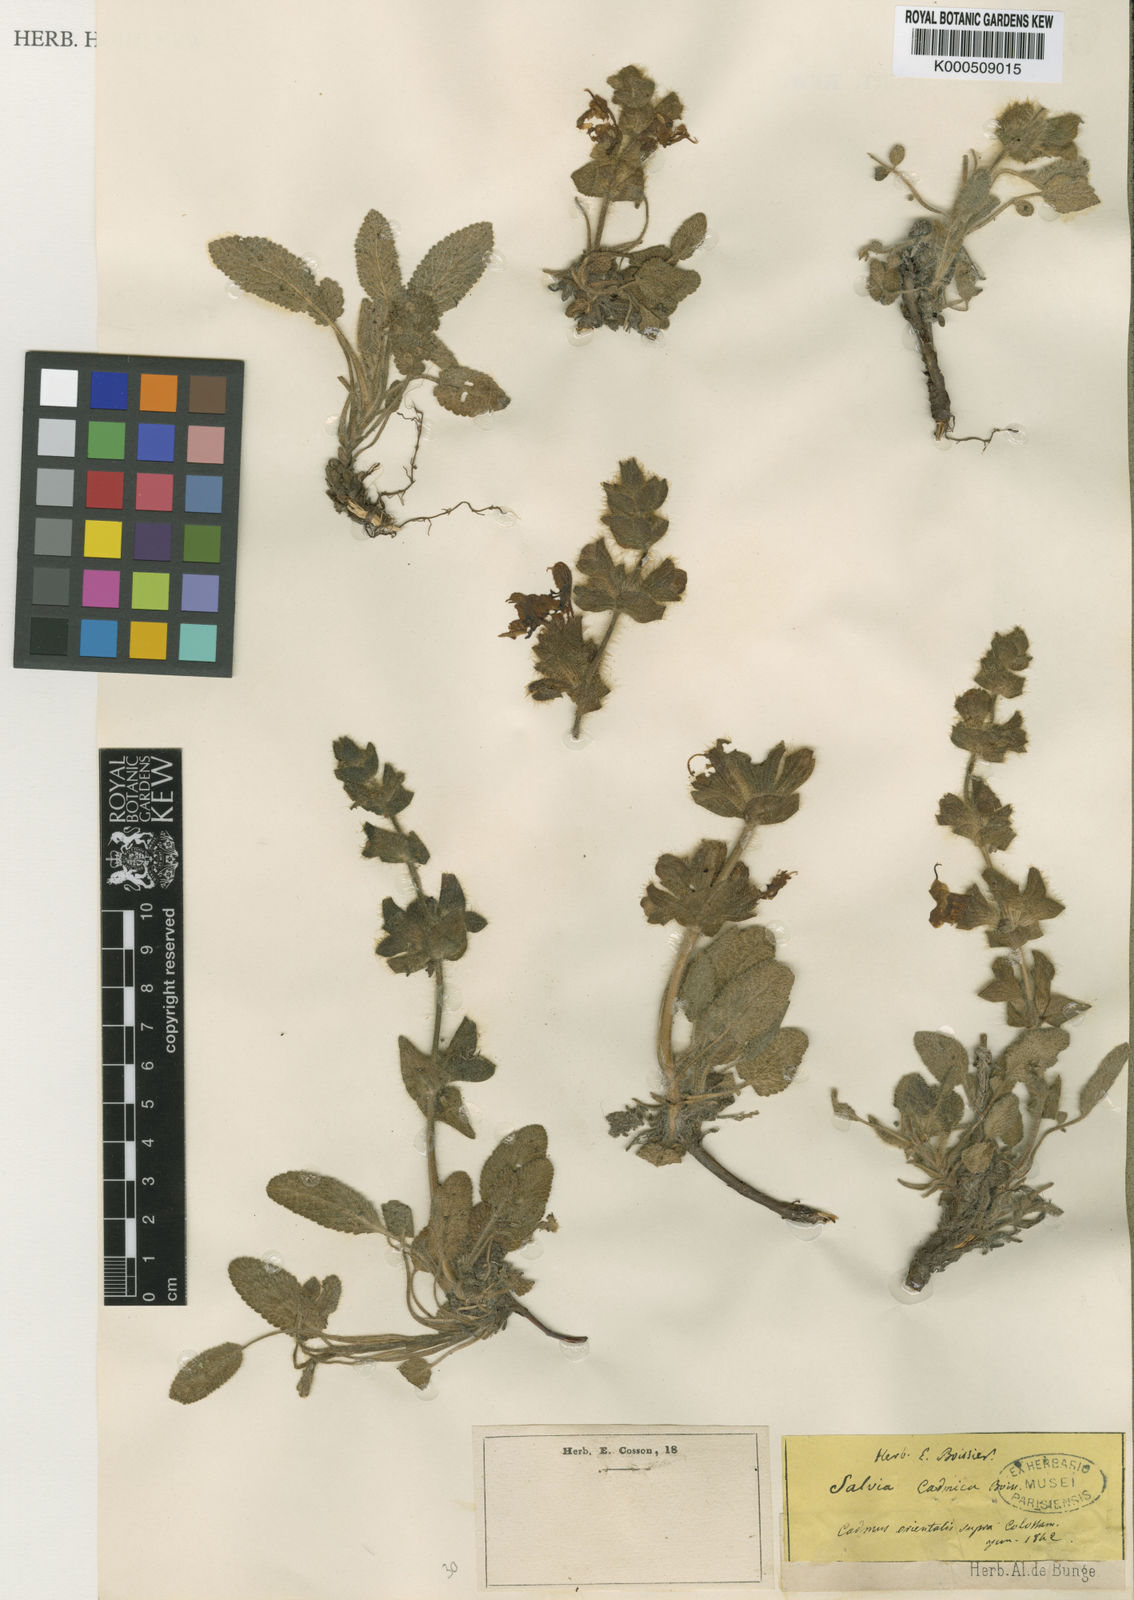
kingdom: Plantae
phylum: Tracheophyta
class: Magnoliopsida
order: Lamiales
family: Lamiaceae
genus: Salvia
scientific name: Salvia cadmica
